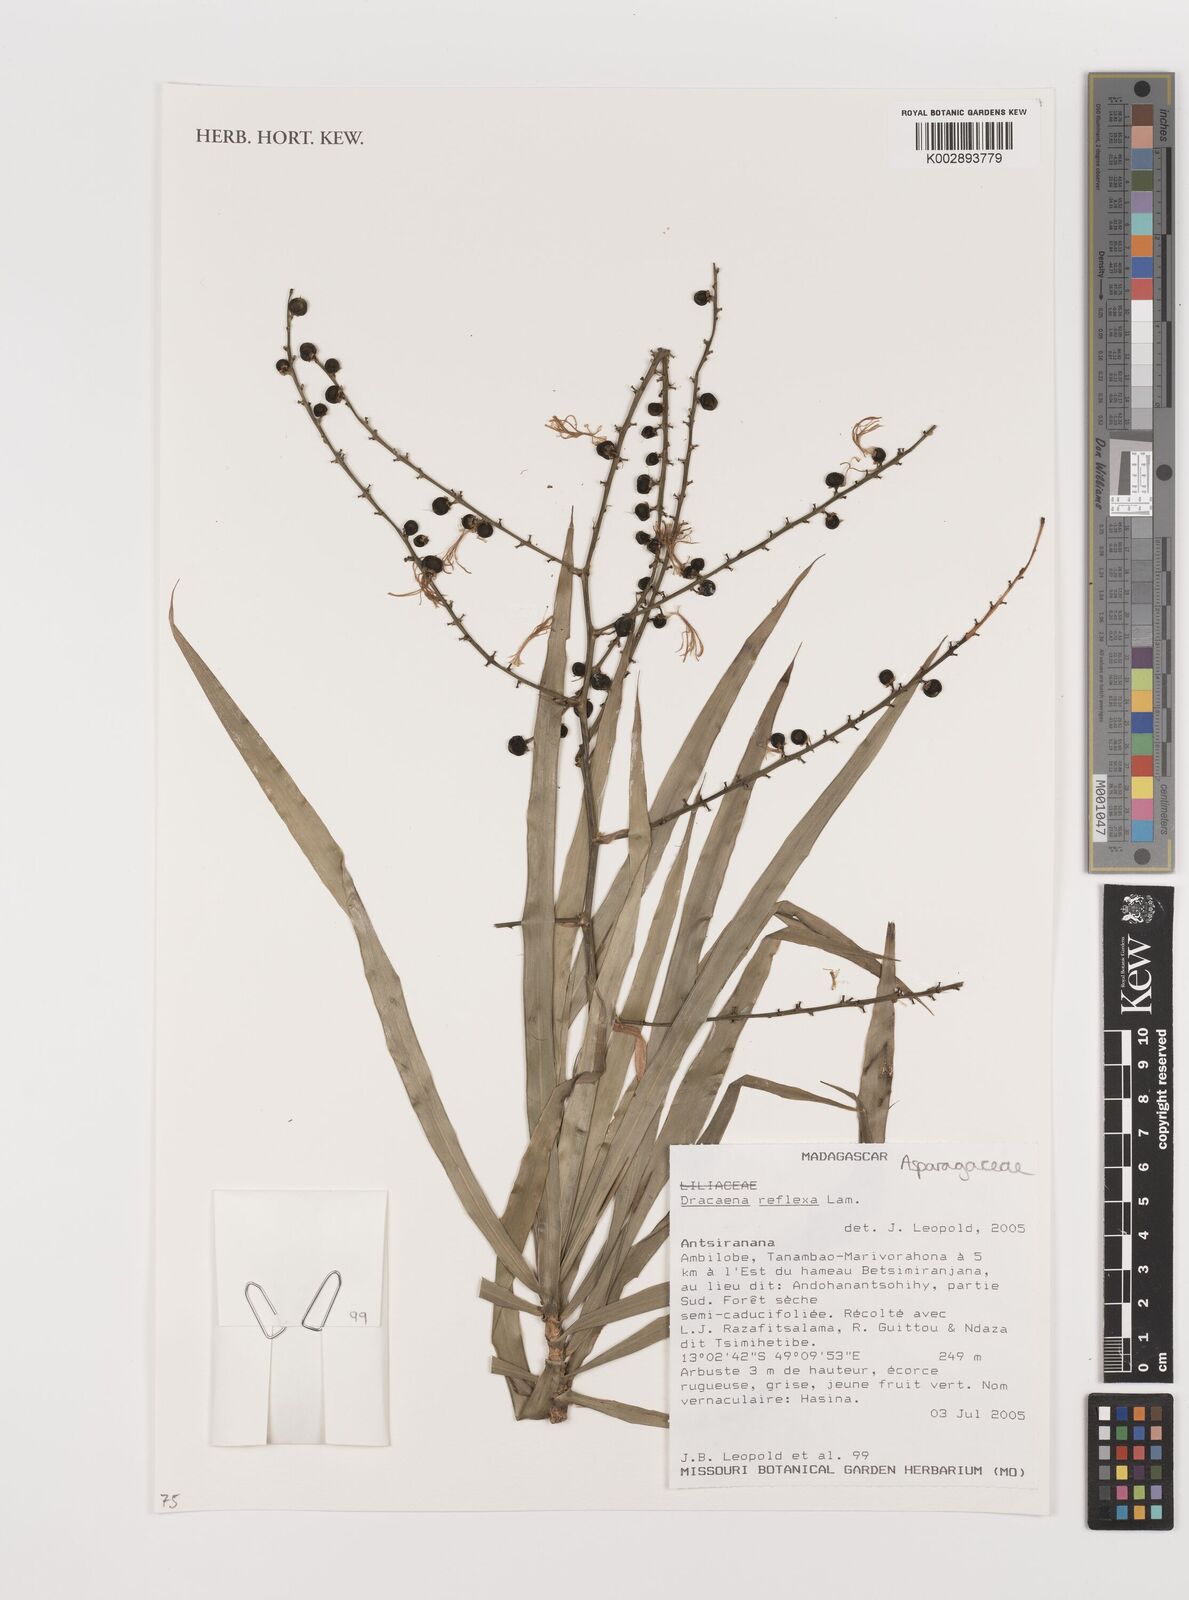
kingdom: Plantae
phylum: Tracheophyta
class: Liliopsida
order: Asparagales
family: Asparagaceae
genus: Dracaena
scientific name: Dracaena reflexa
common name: Song-of-india
